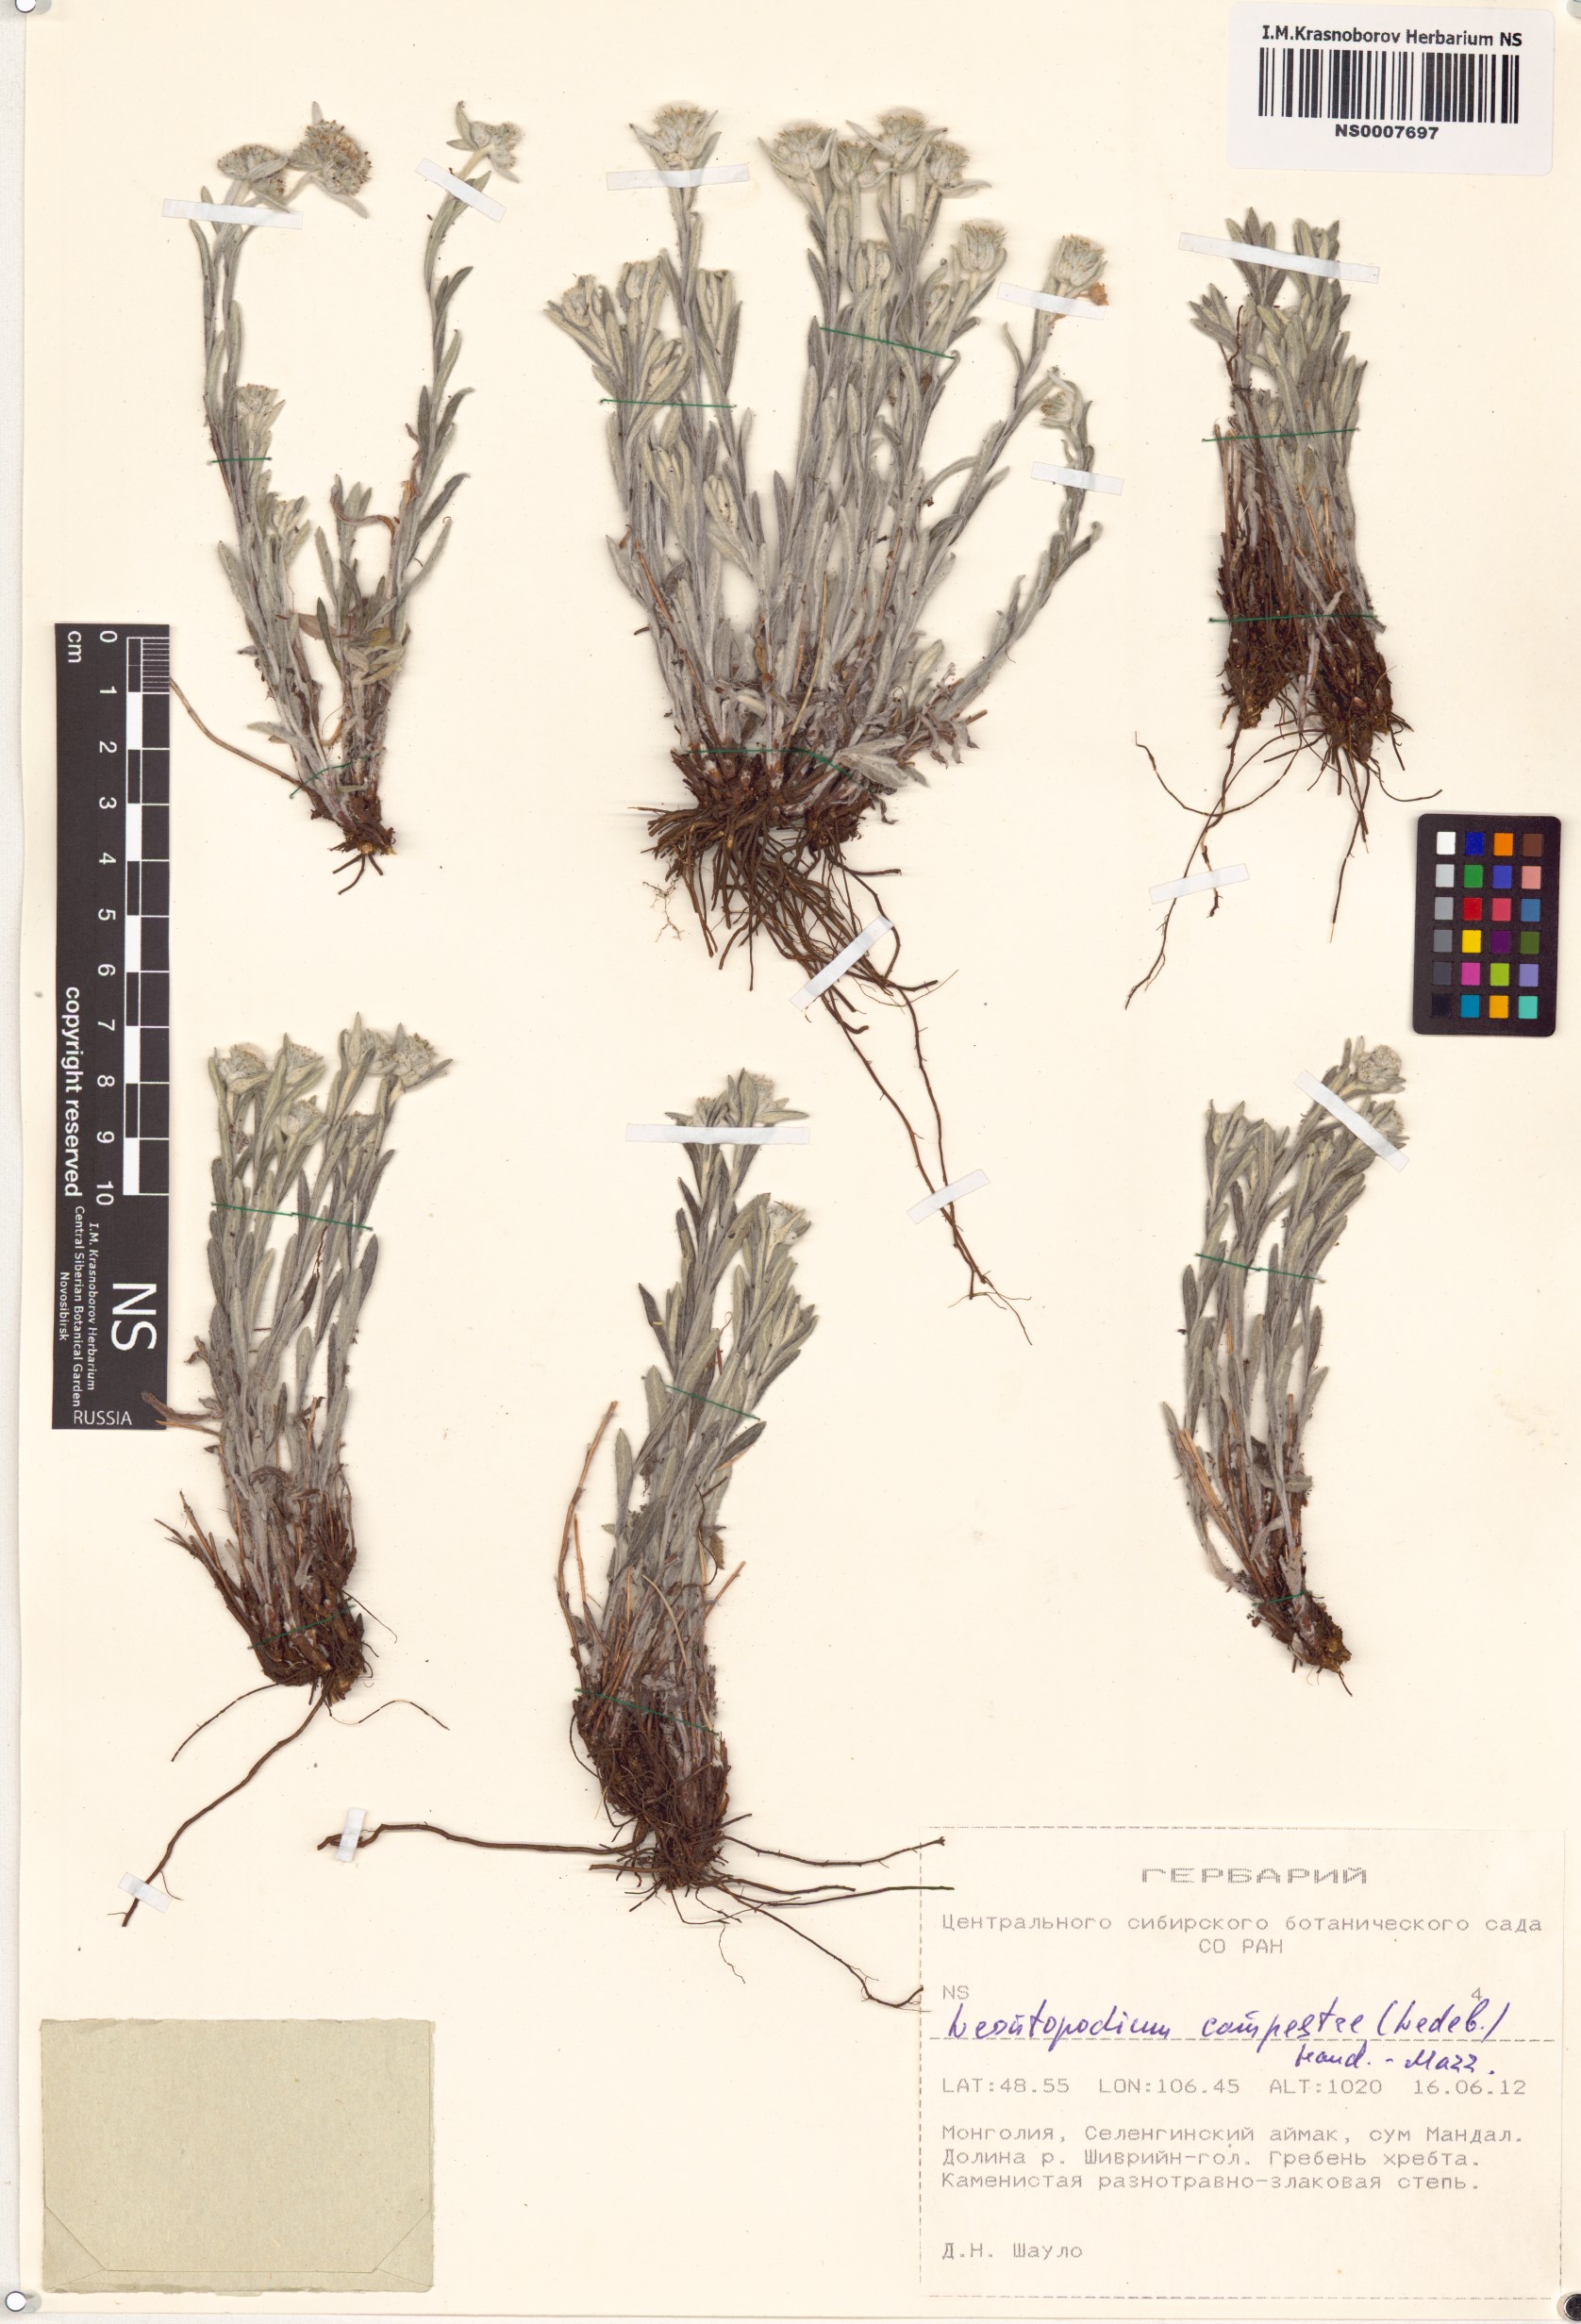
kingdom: Plantae
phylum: Tracheophyta
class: Magnoliopsida
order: Asterales
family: Asteraceae
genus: Leontopodium
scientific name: Leontopodium campestre
